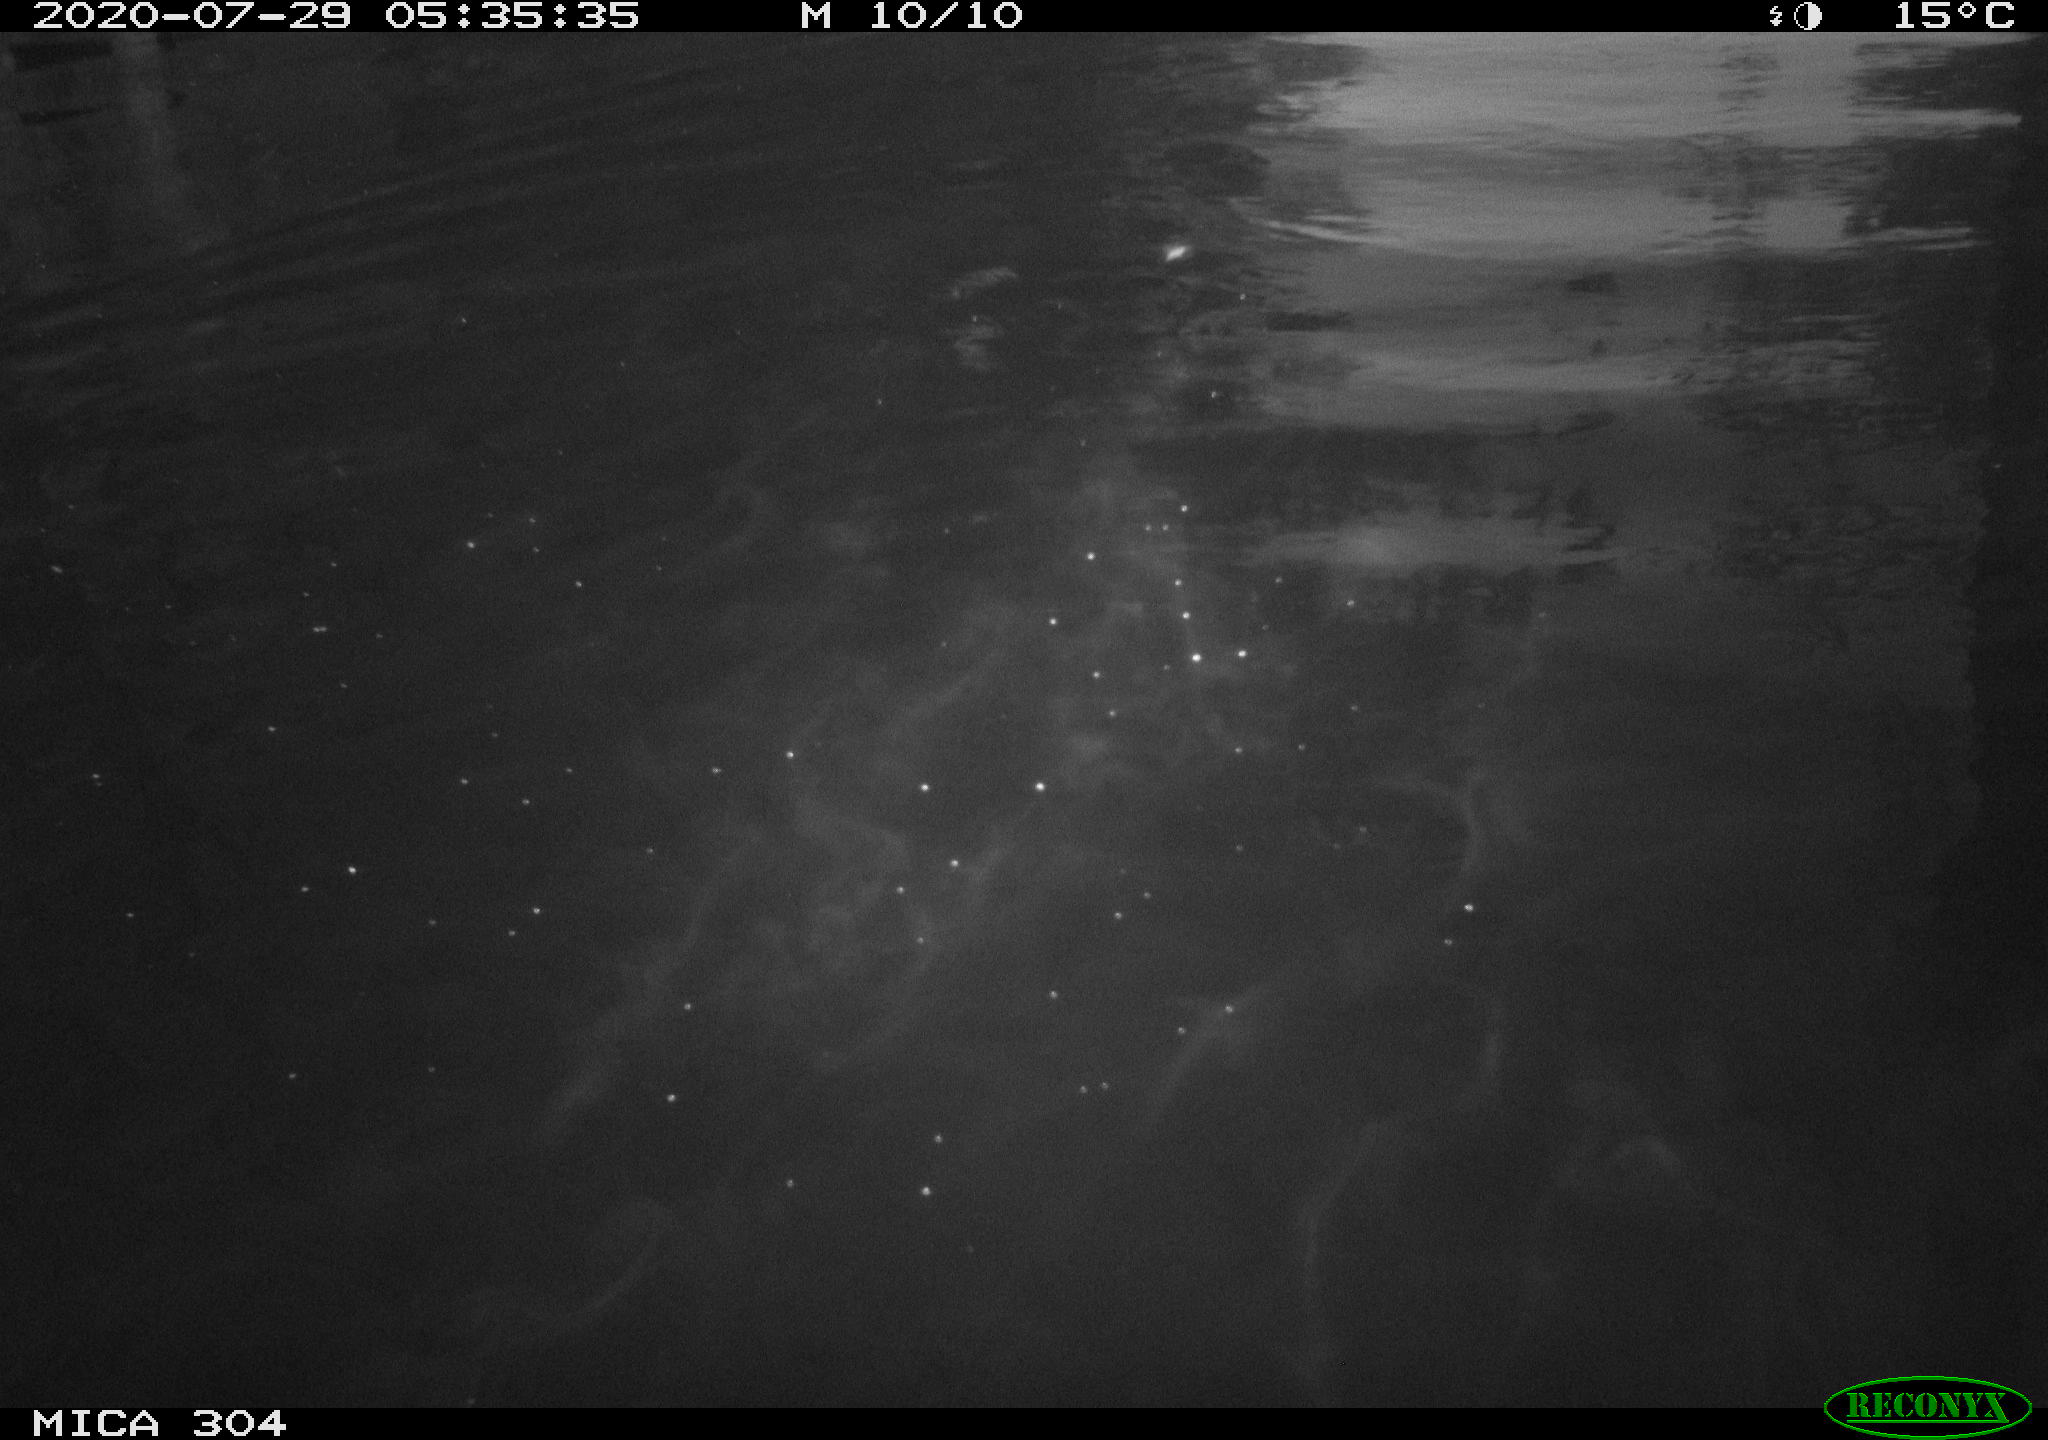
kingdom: Animalia
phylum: Chordata
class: Aves
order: Anseriformes
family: Anatidae
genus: Anas
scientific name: Anas platyrhynchos
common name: Mallard
